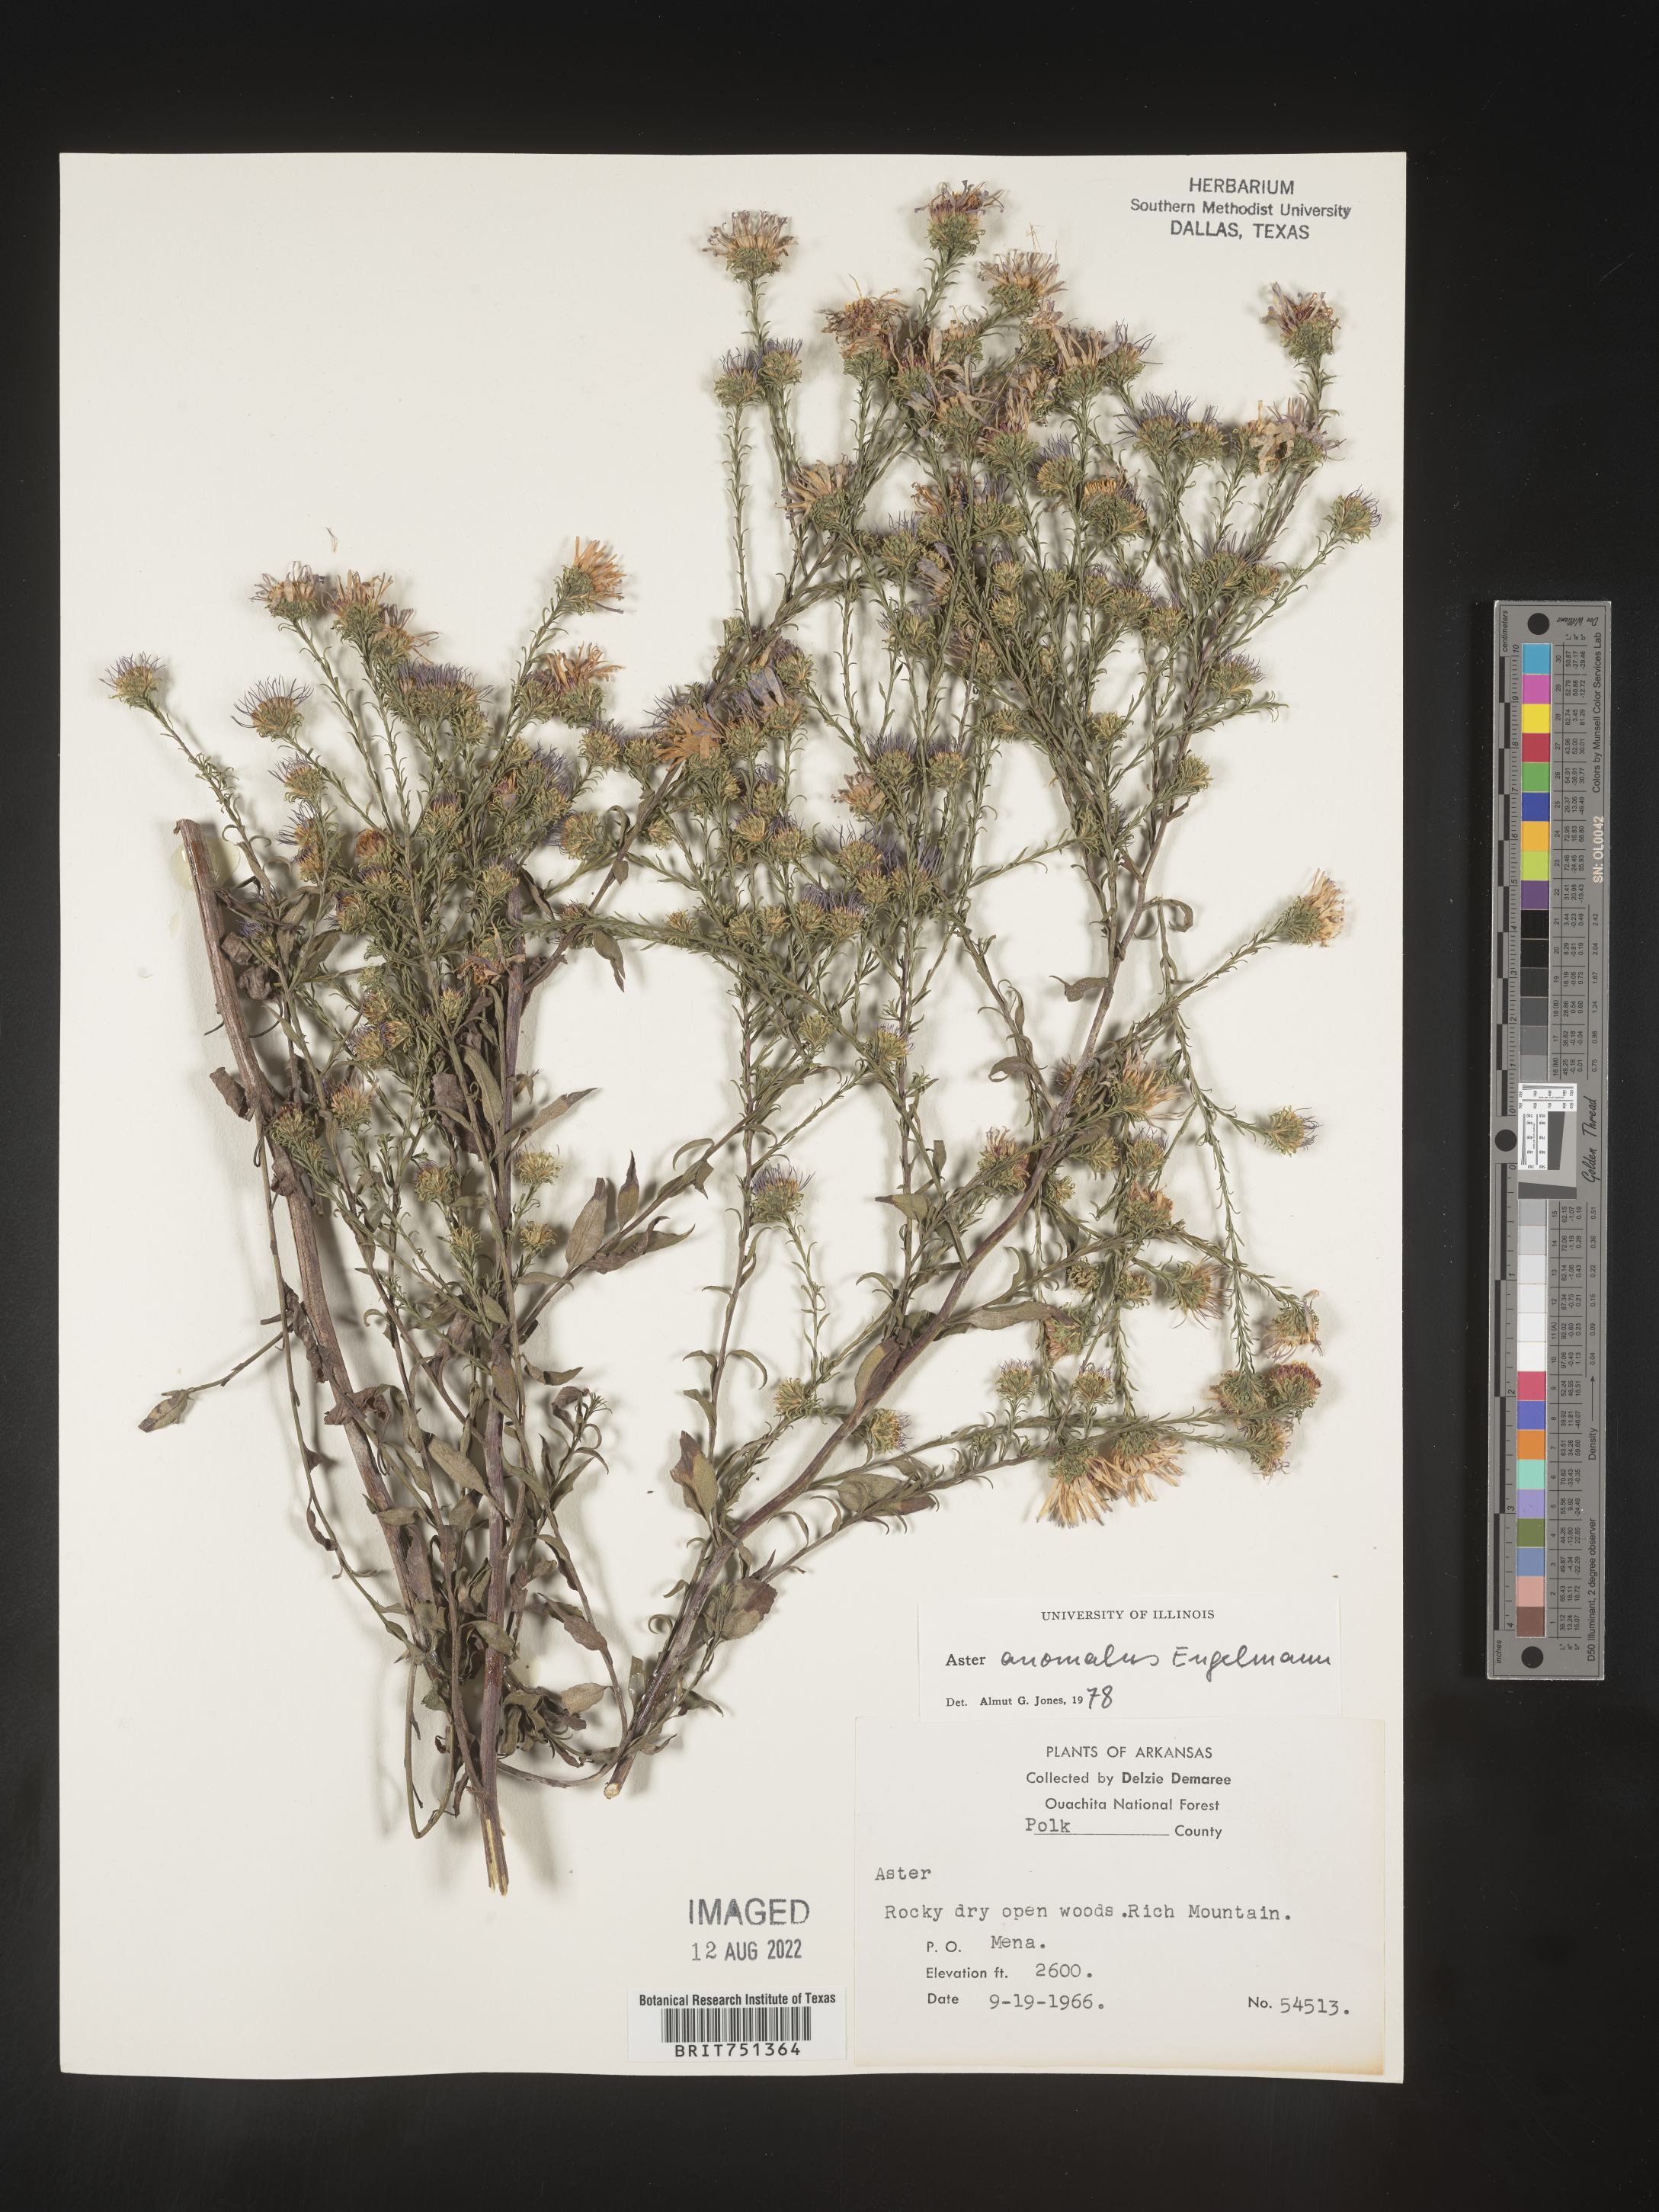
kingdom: Plantae
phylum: Tracheophyta
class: Magnoliopsida
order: Asterales
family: Asteraceae
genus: Symphyotrichum
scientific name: Symphyotrichum anomalum
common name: Many-ray aster
